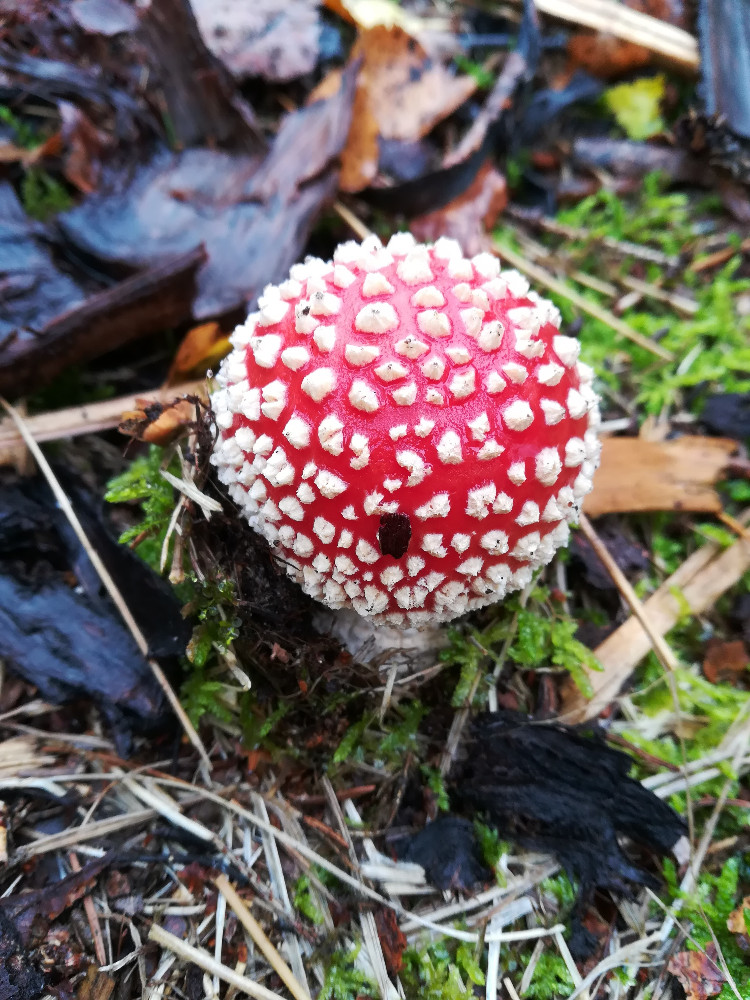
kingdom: Fungi
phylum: Basidiomycota
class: Agaricomycetes
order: Agaricales
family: Amanitaceae
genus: Amanita
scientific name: Amanita muscaria
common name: rød fluesvamp
